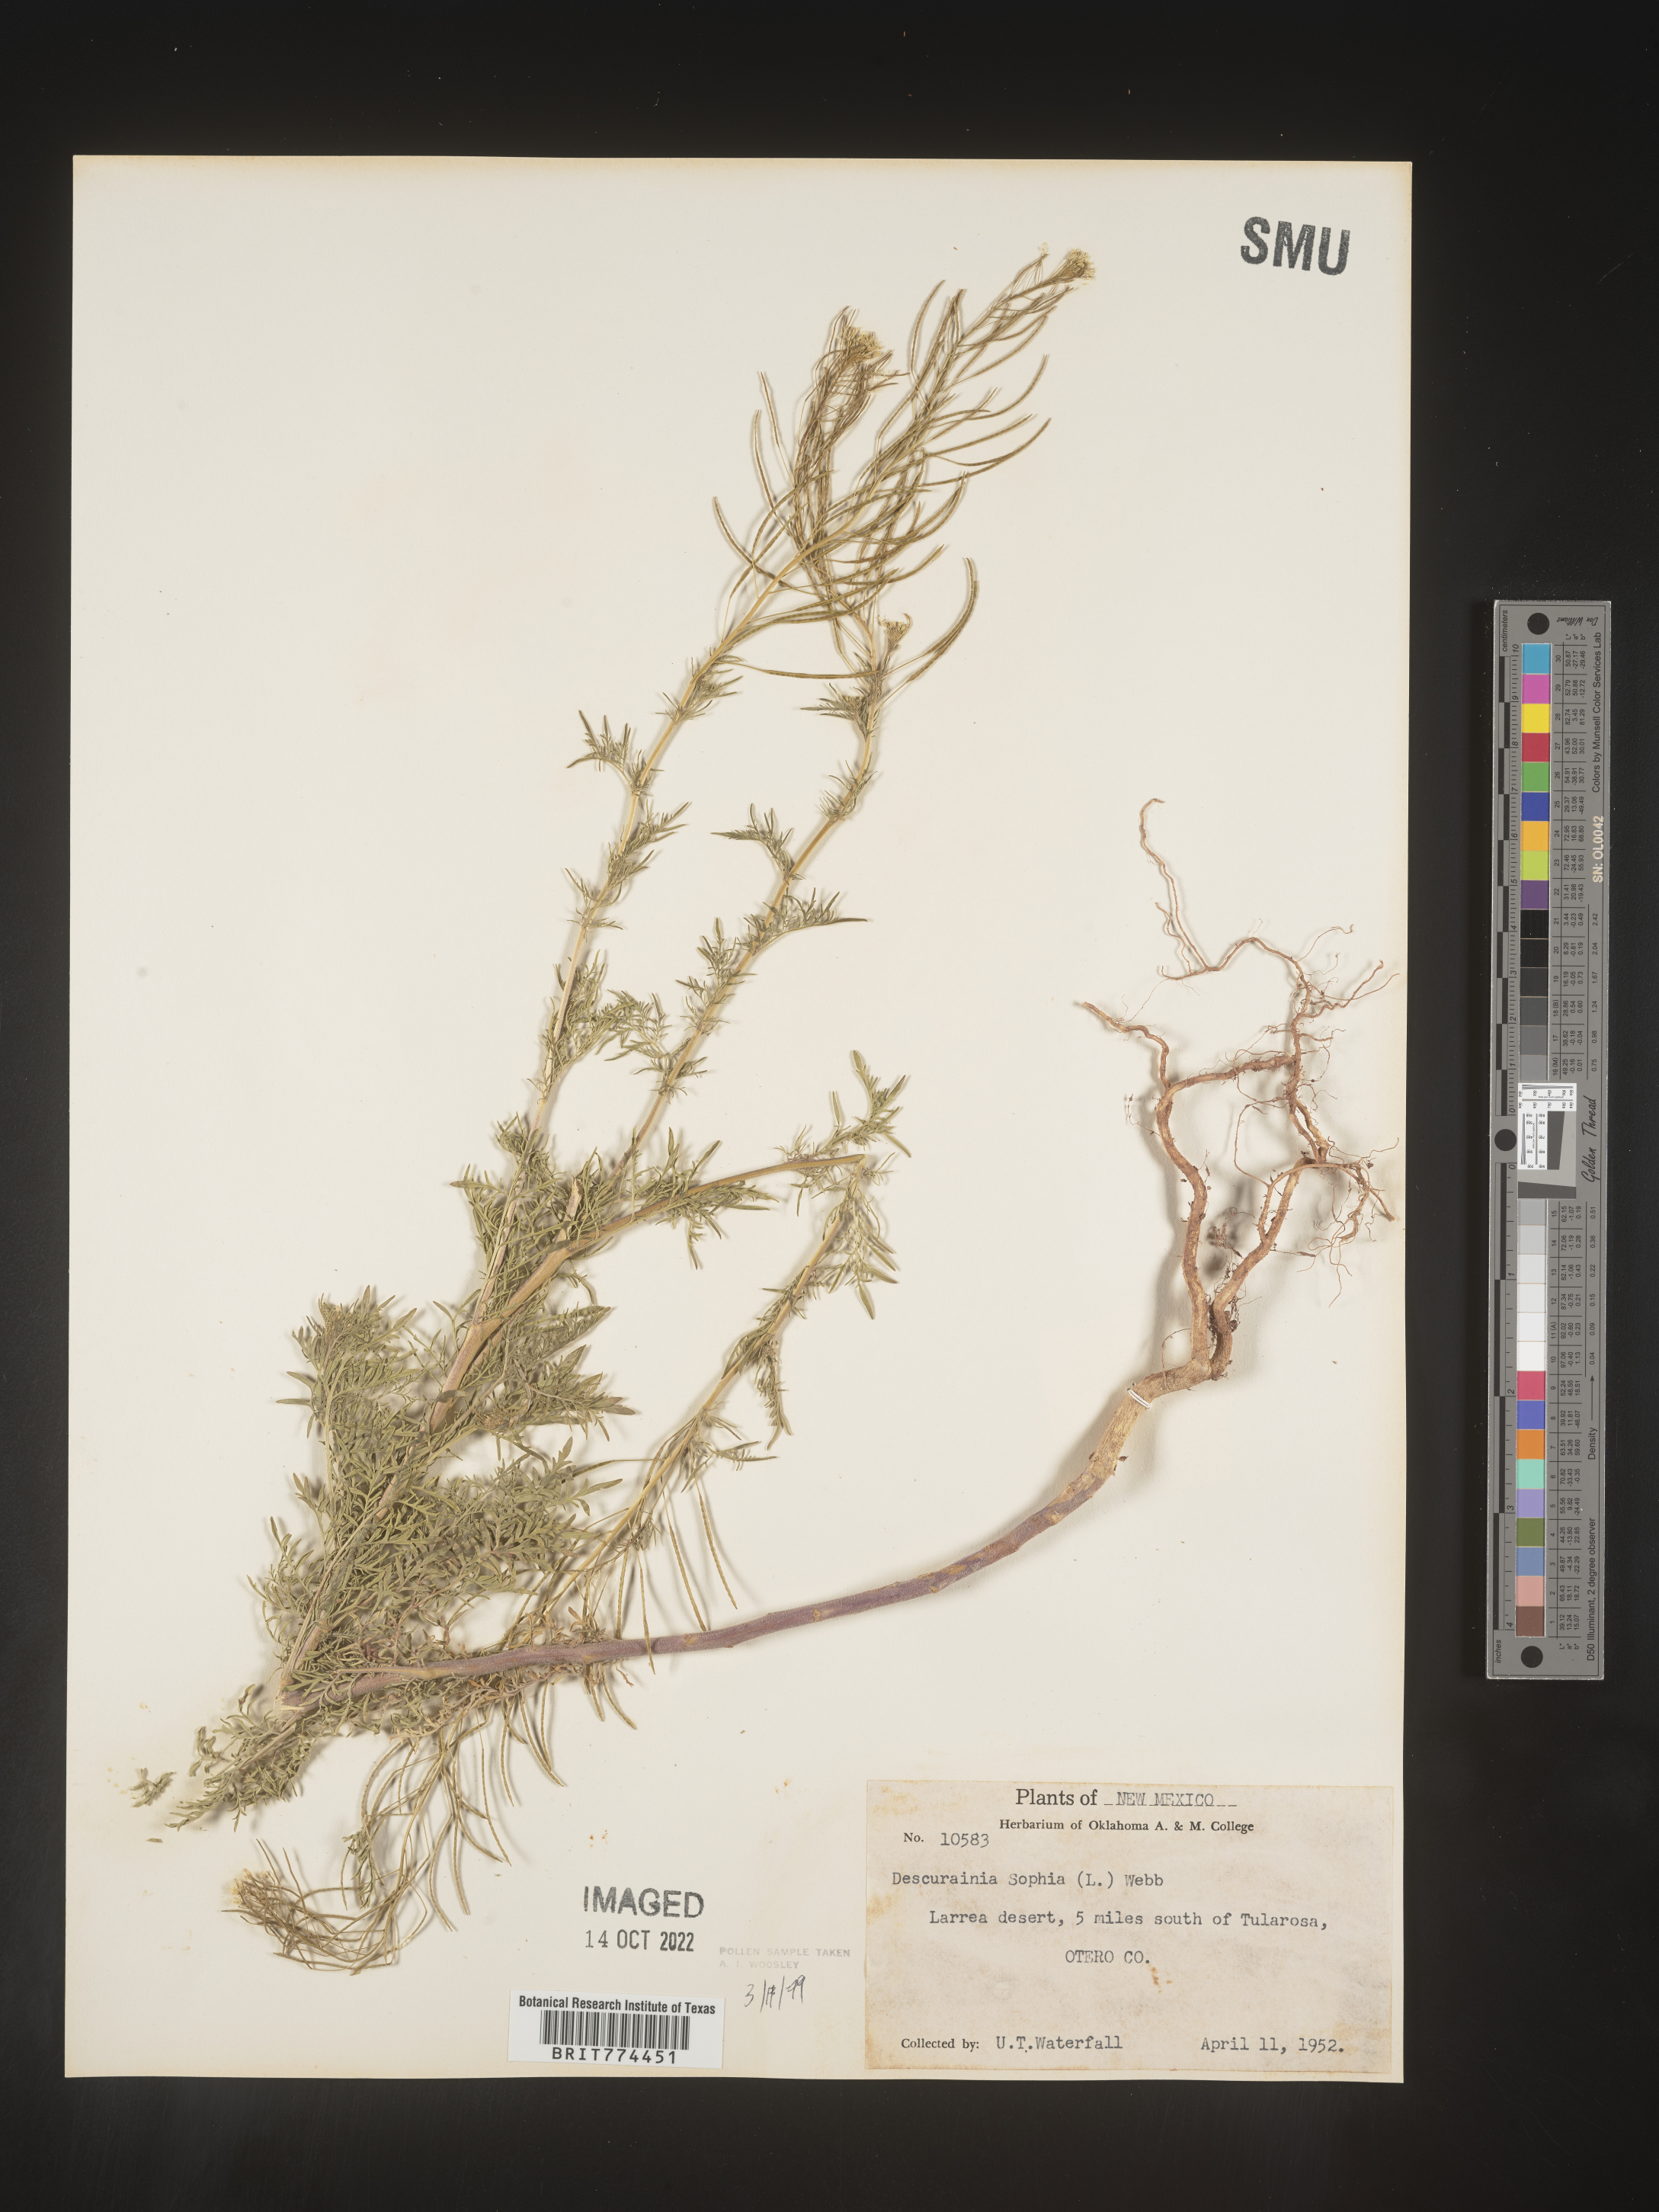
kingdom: Plantae
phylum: Tracheophyta
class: Magnoliopsida
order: Brassicales
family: Brassicaceae
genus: Descurainia
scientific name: Descurainia sophia
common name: Flixweed
